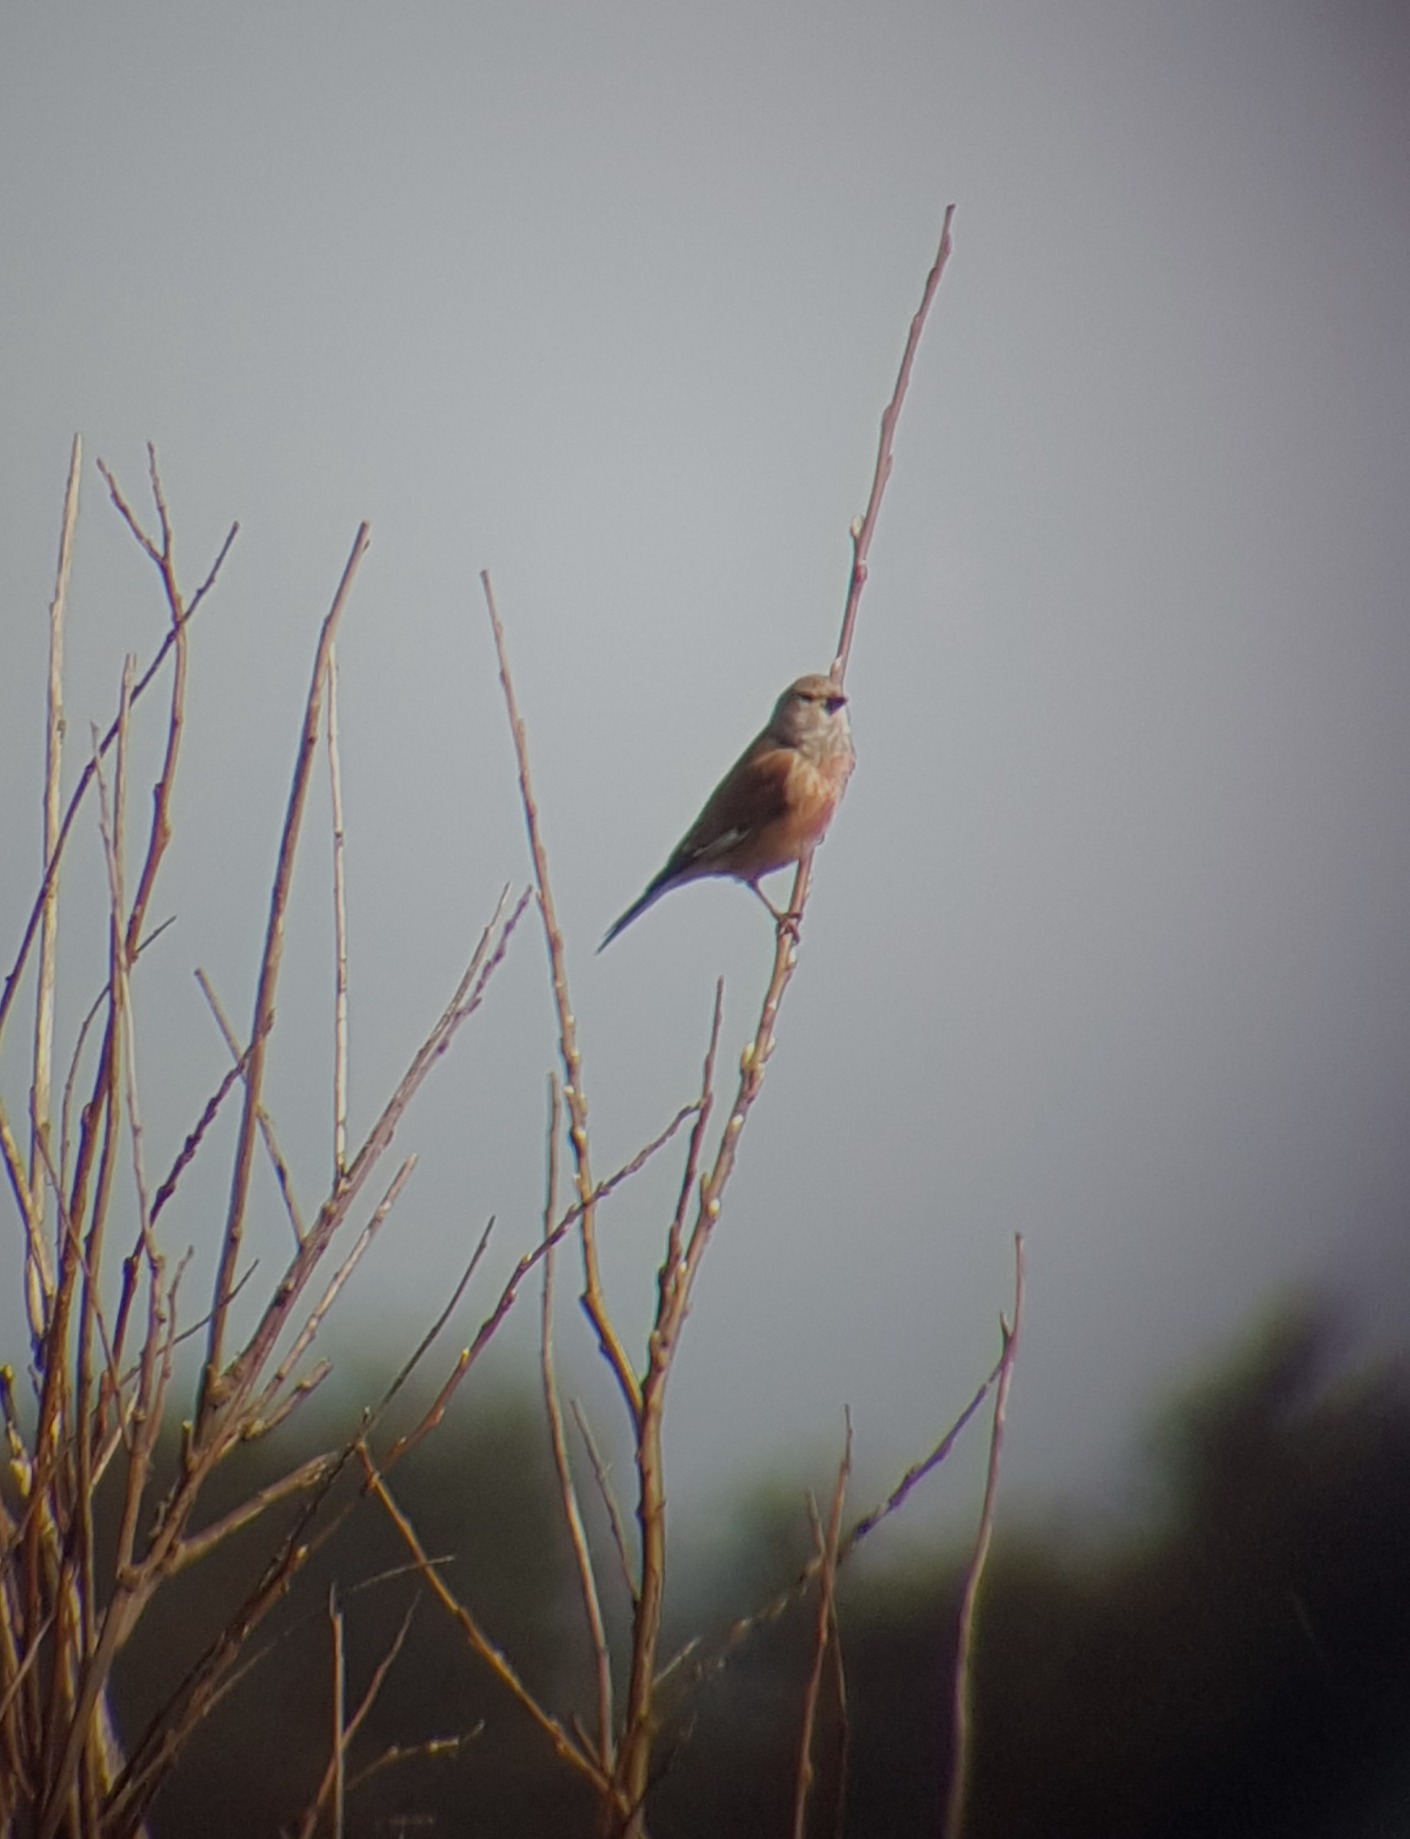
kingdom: Animalia
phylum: Chordata
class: Aves
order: Passeriformes
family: Fringillidae
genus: Linaria
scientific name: Linaria cannabina
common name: Tornirisk
